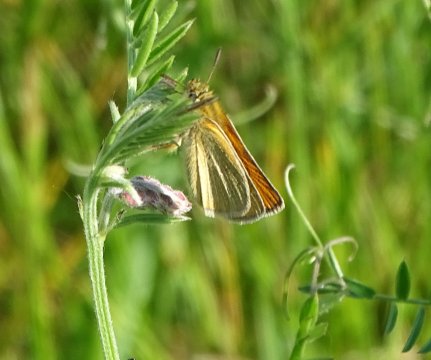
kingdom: Animalia
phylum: Arthropoda
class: Insecta
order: Lepidoptera
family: Hesperiidae
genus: Thymelicus
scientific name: Thymelicus lineola
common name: European Skipper
